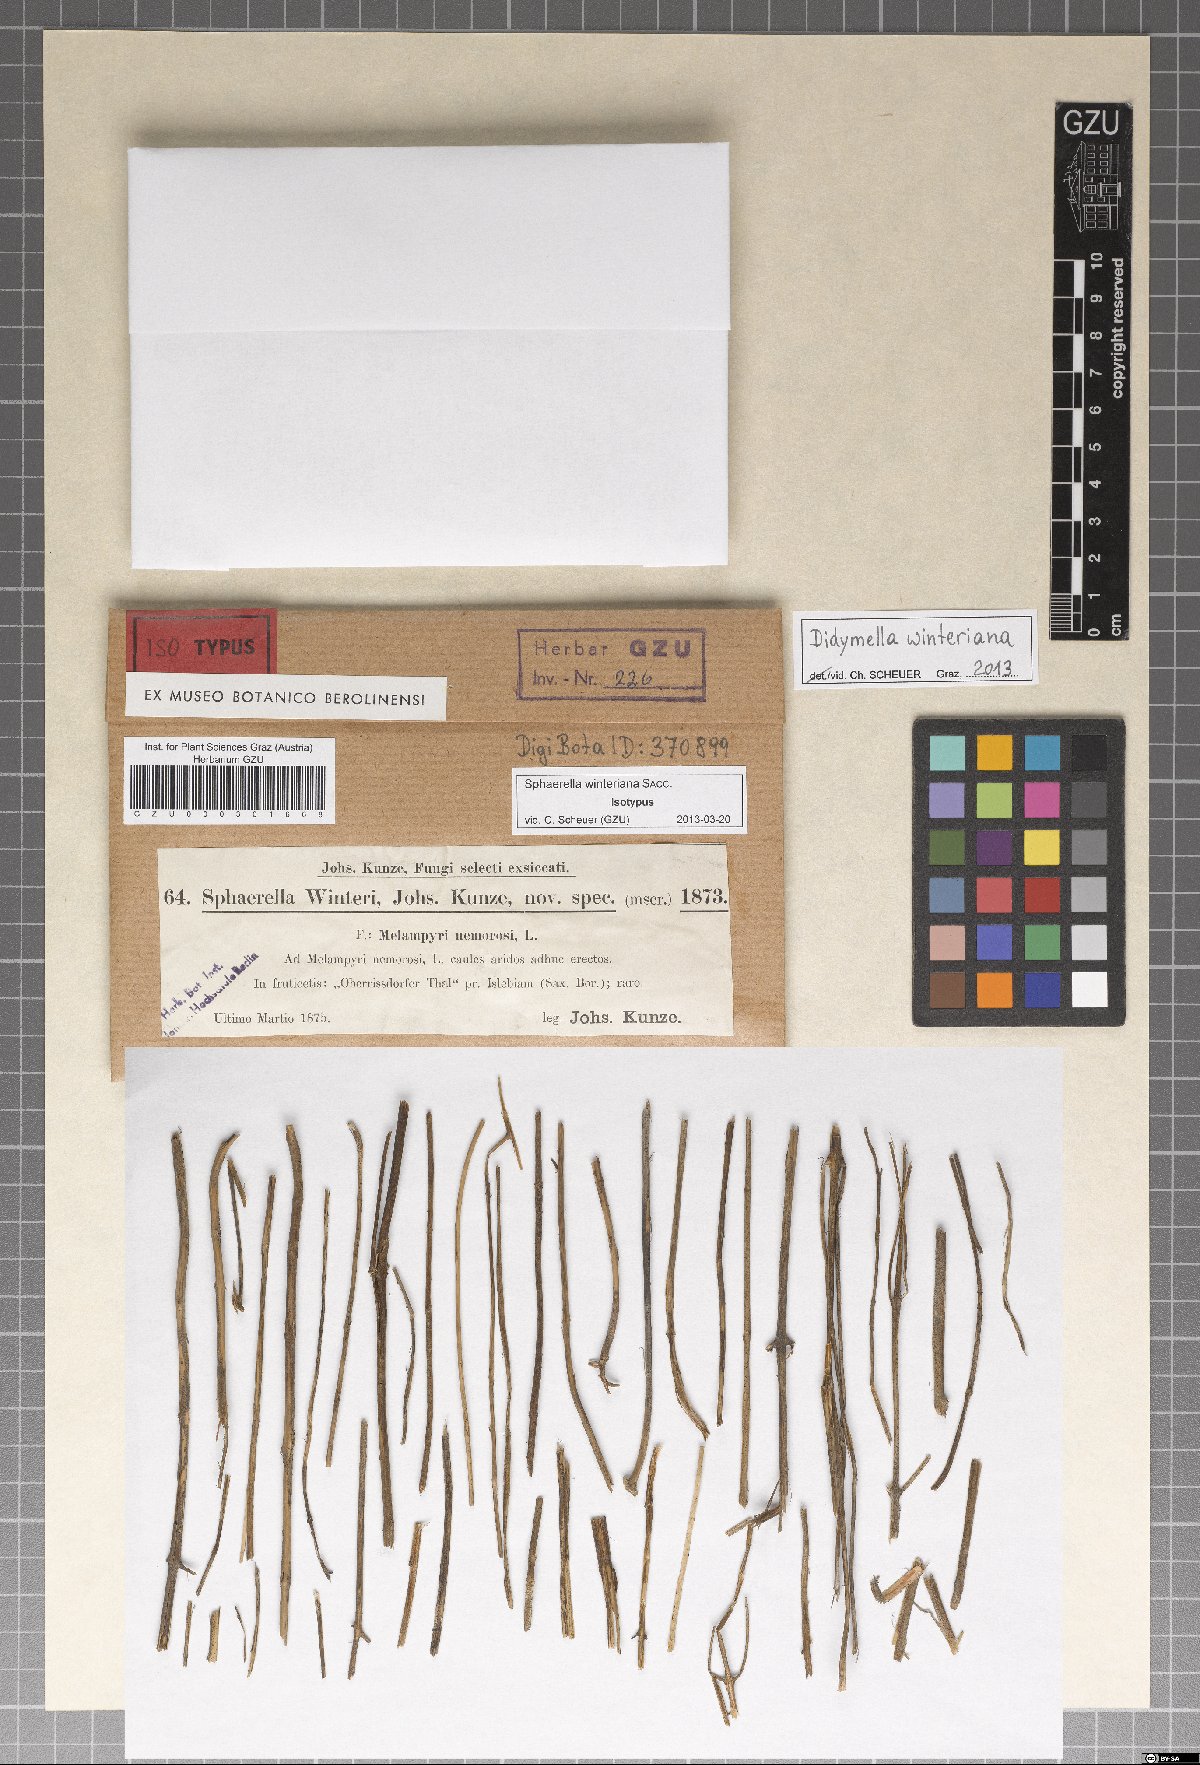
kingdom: Fungi
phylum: Ascomycota
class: Dothideomycetes
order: Pleosporales
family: Didymellaceae
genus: Didymella
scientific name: Didymella winteriana
